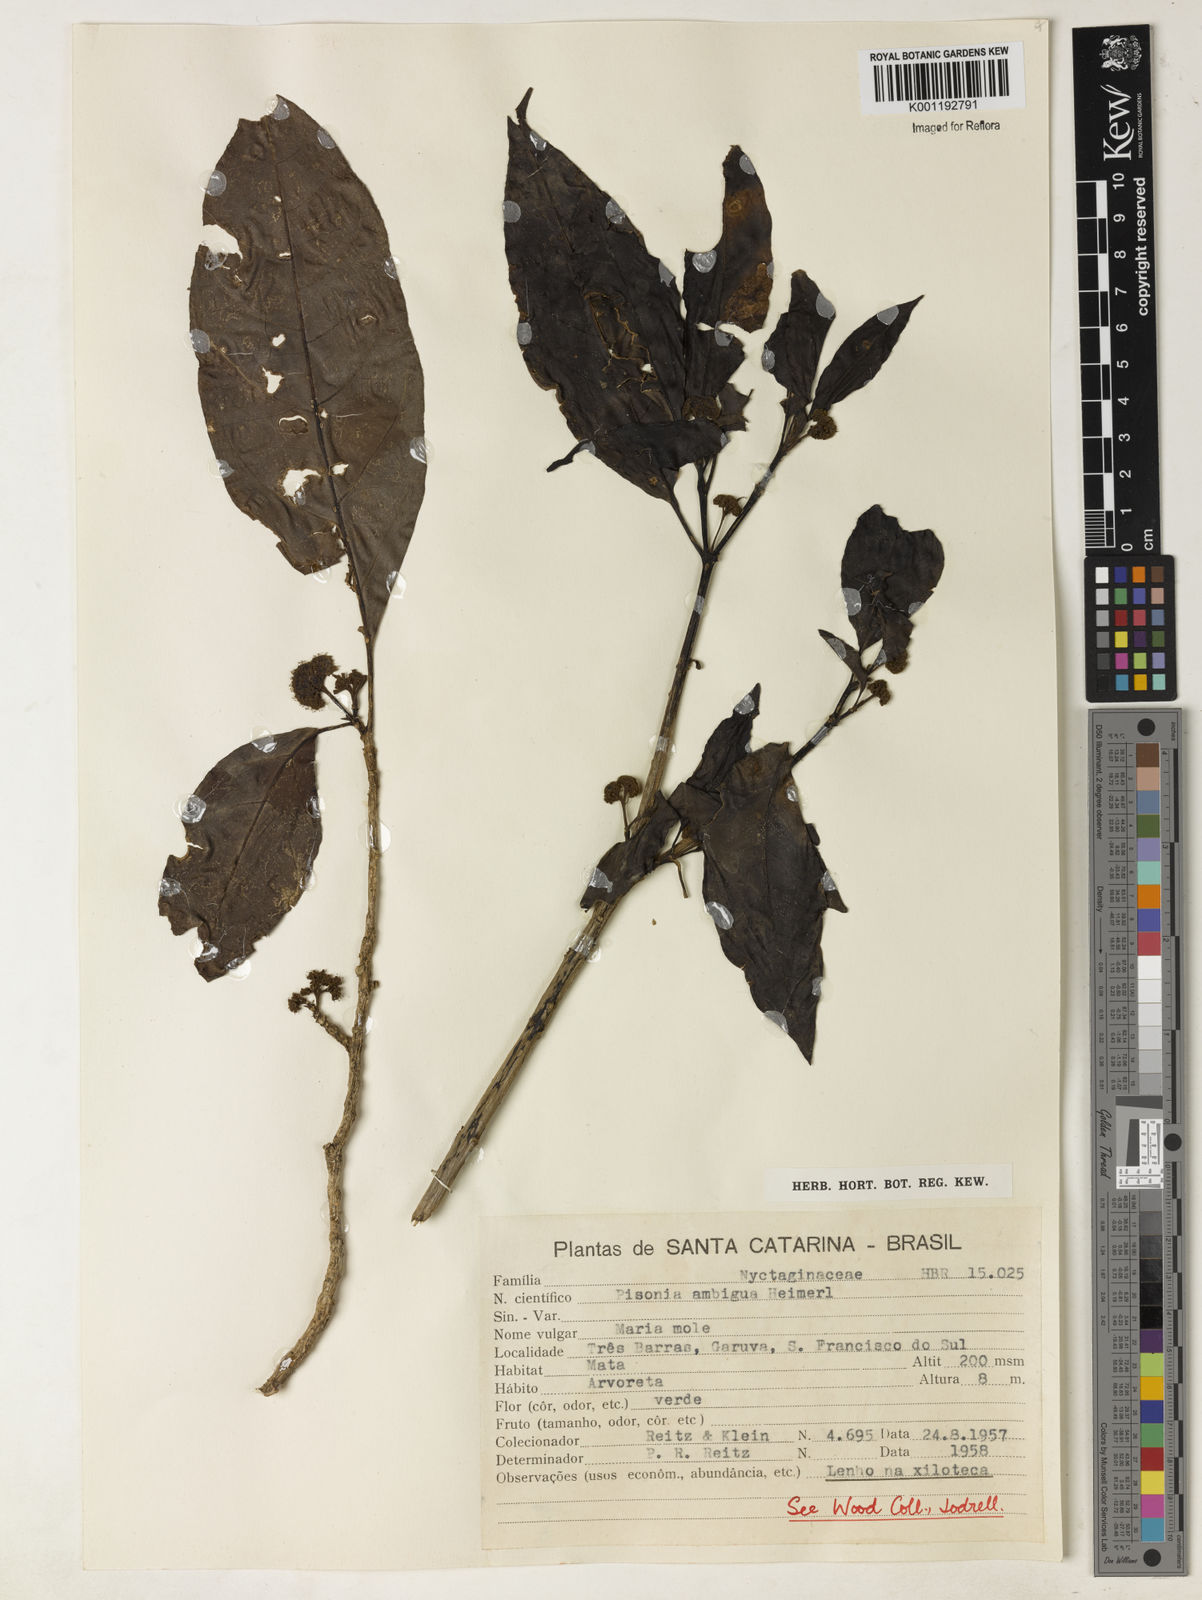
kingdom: Plantae
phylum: Tracheophyta
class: Magnoliopsida
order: Caryophyllales
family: Nyctaginaceae
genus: Pisonia
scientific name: Pisonia ambigua
